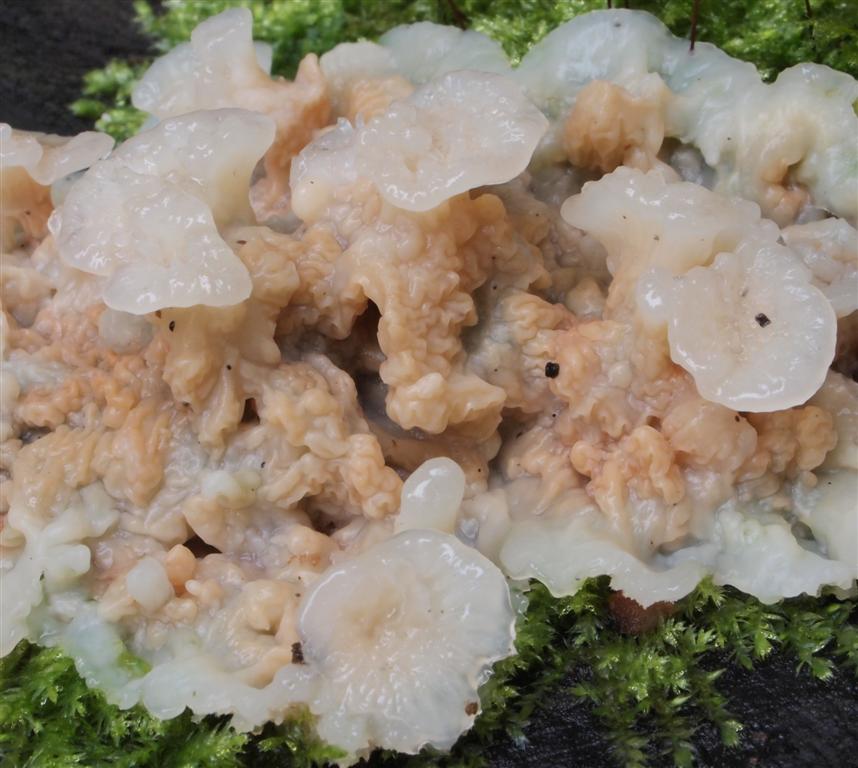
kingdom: Fungi
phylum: Basidiomycota
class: Agaricomycetes
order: Polyporales
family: Meruliaceae
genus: Phlebia
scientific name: Phlebia tremellosa
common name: bævrende åresvamp
